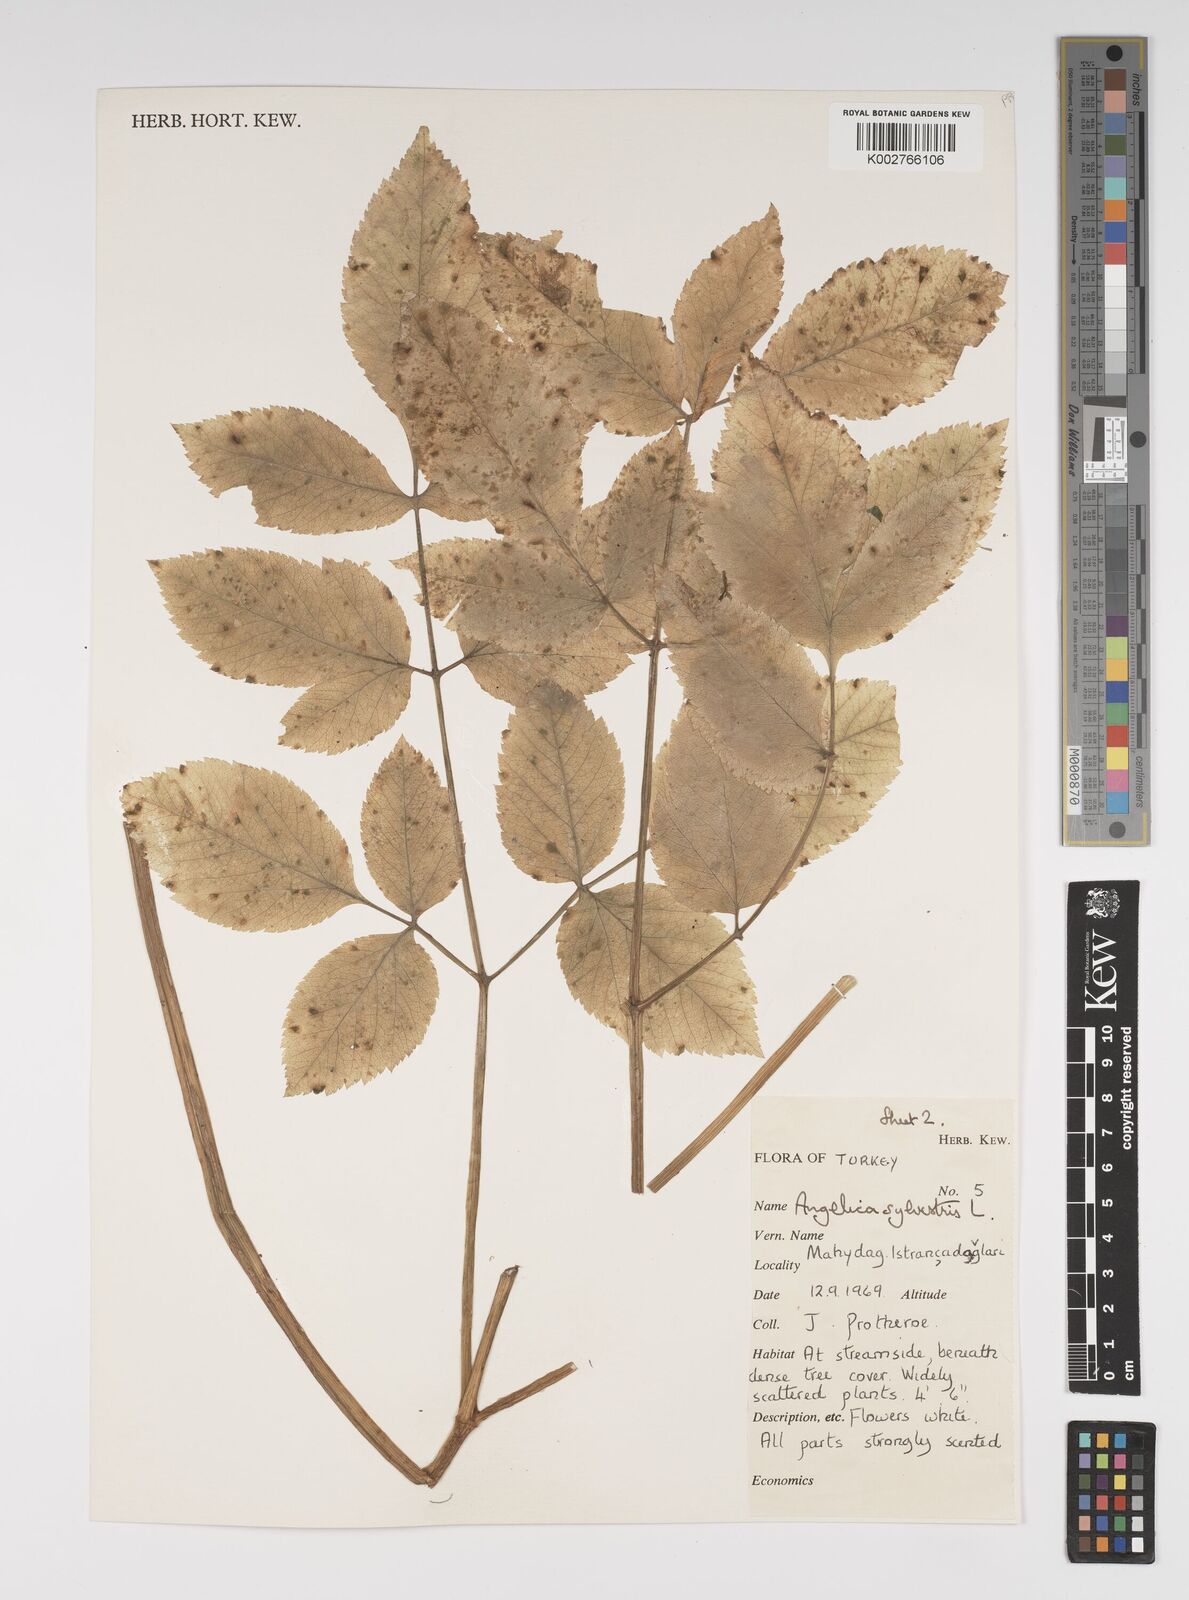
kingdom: Plantae
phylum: Tracheophyta
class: Magnoliopsida
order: Apiales
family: Apiaceae
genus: Angelica
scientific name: Angelica sylvestris
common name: Wild angelica
